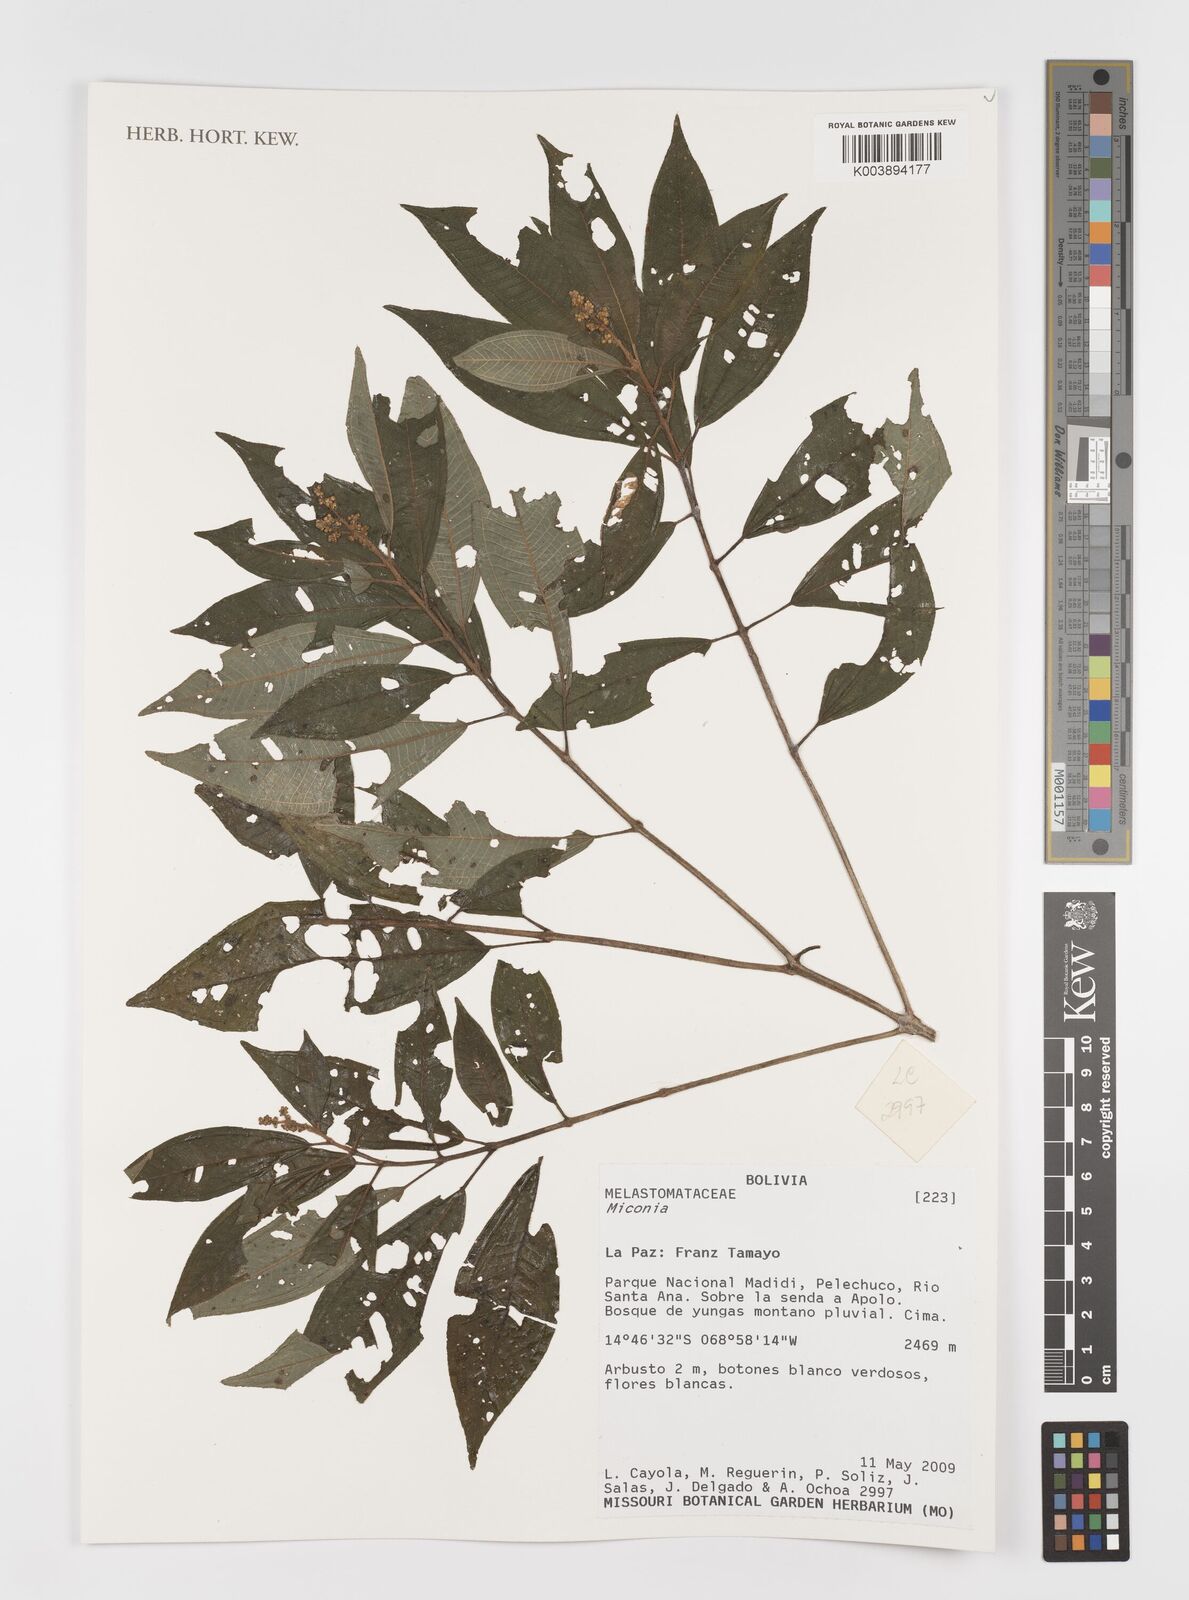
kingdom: Plantae
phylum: Tracheophyta
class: Magnoliopsida
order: Myrtales
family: Melastomataceae
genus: Miconia
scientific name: Miconia
